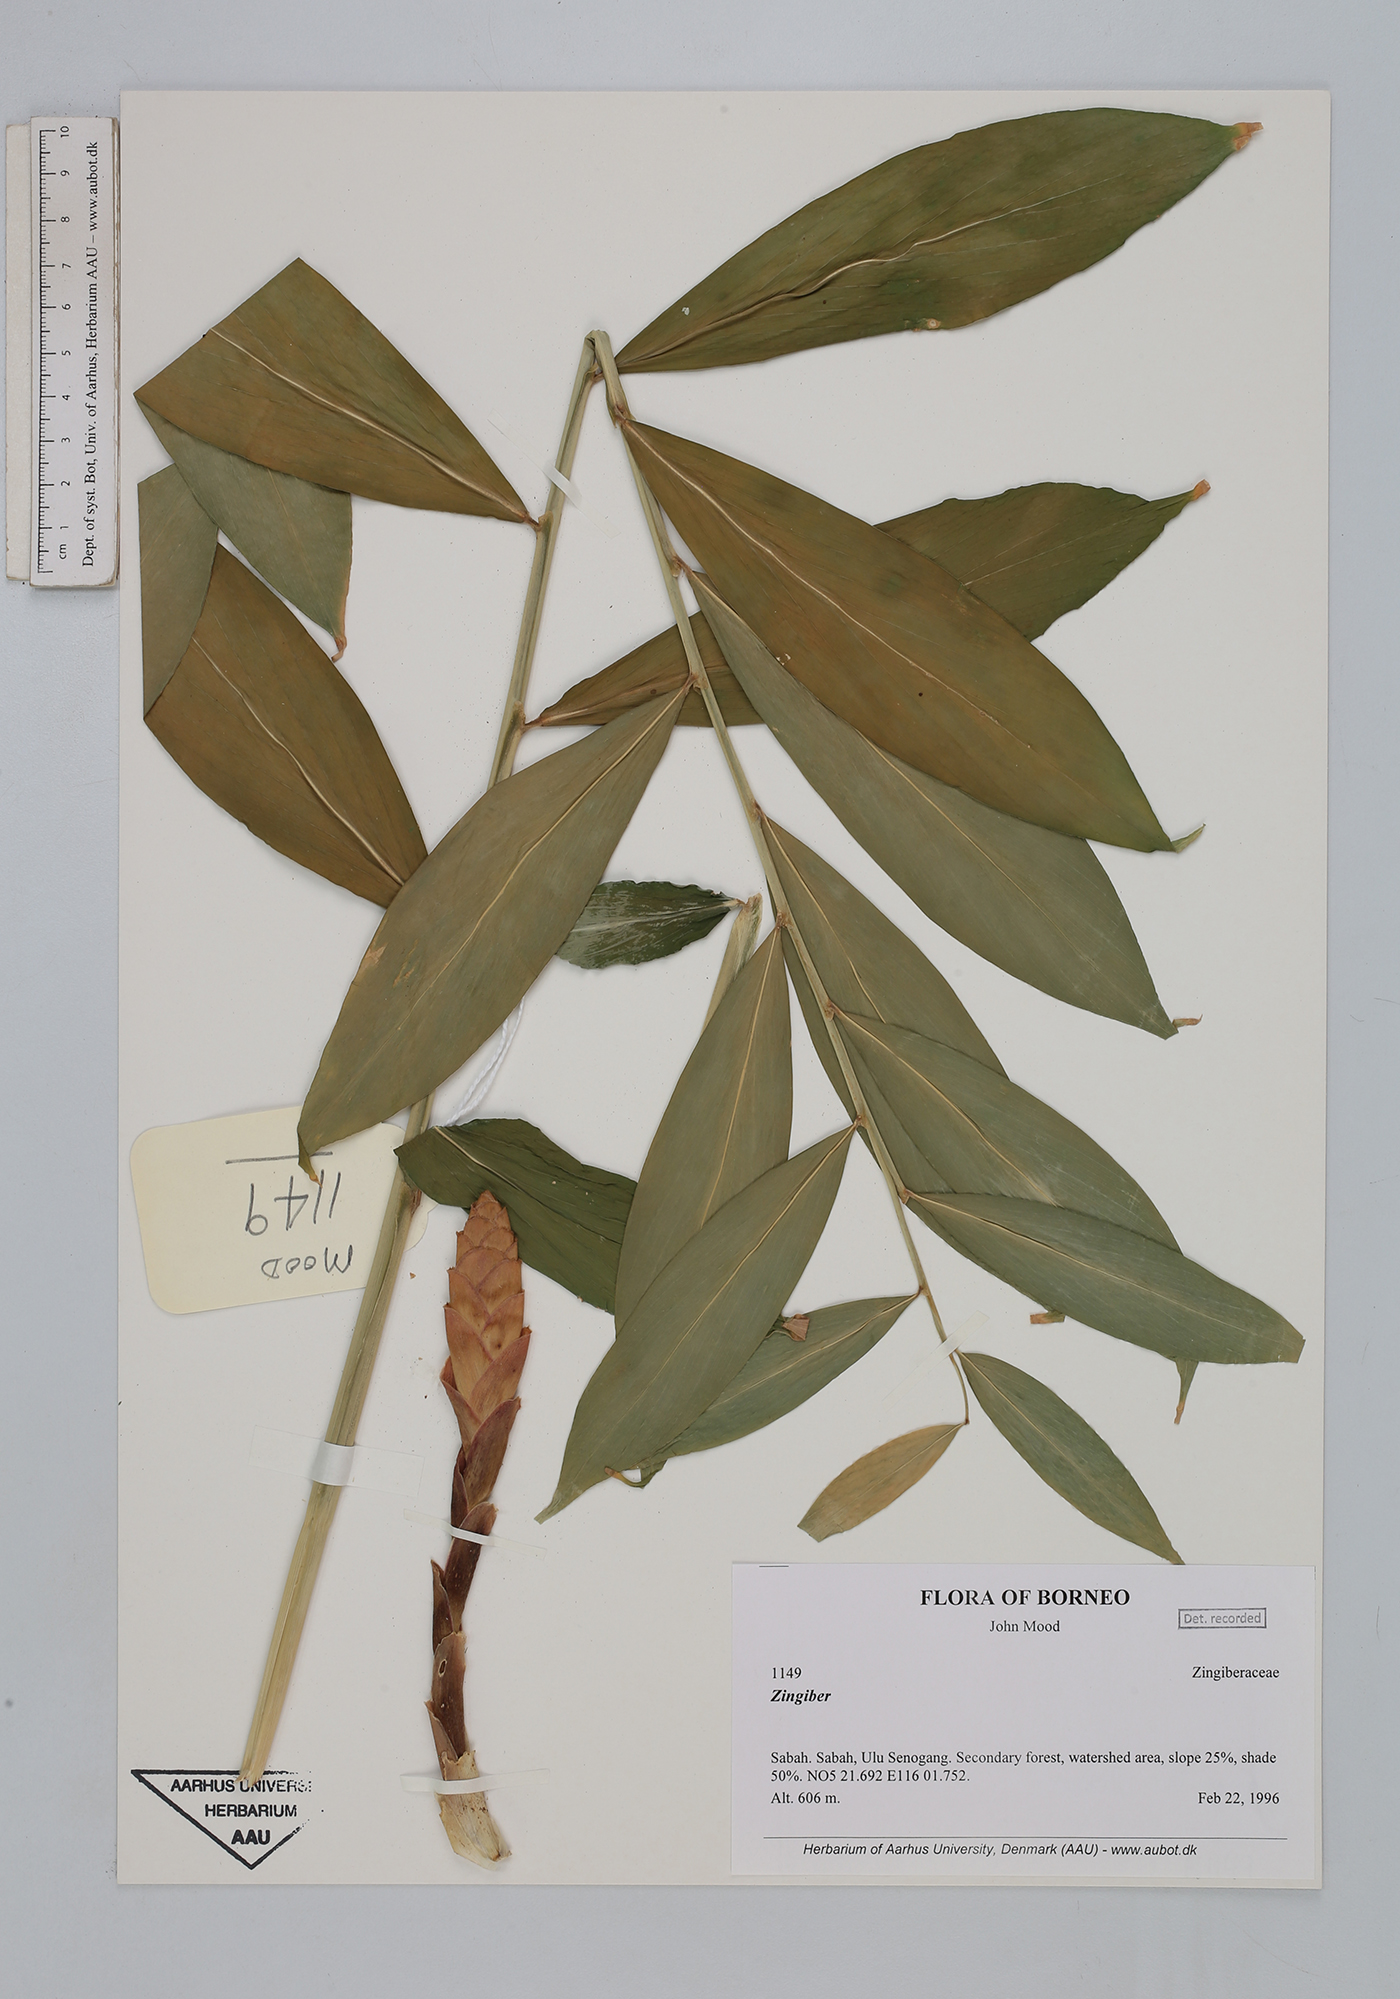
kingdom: Plantae
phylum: Tracheophyta
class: Liliopsida
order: Zingiberales
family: Zingiberaceae
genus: Zingiber
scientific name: Zingiber
